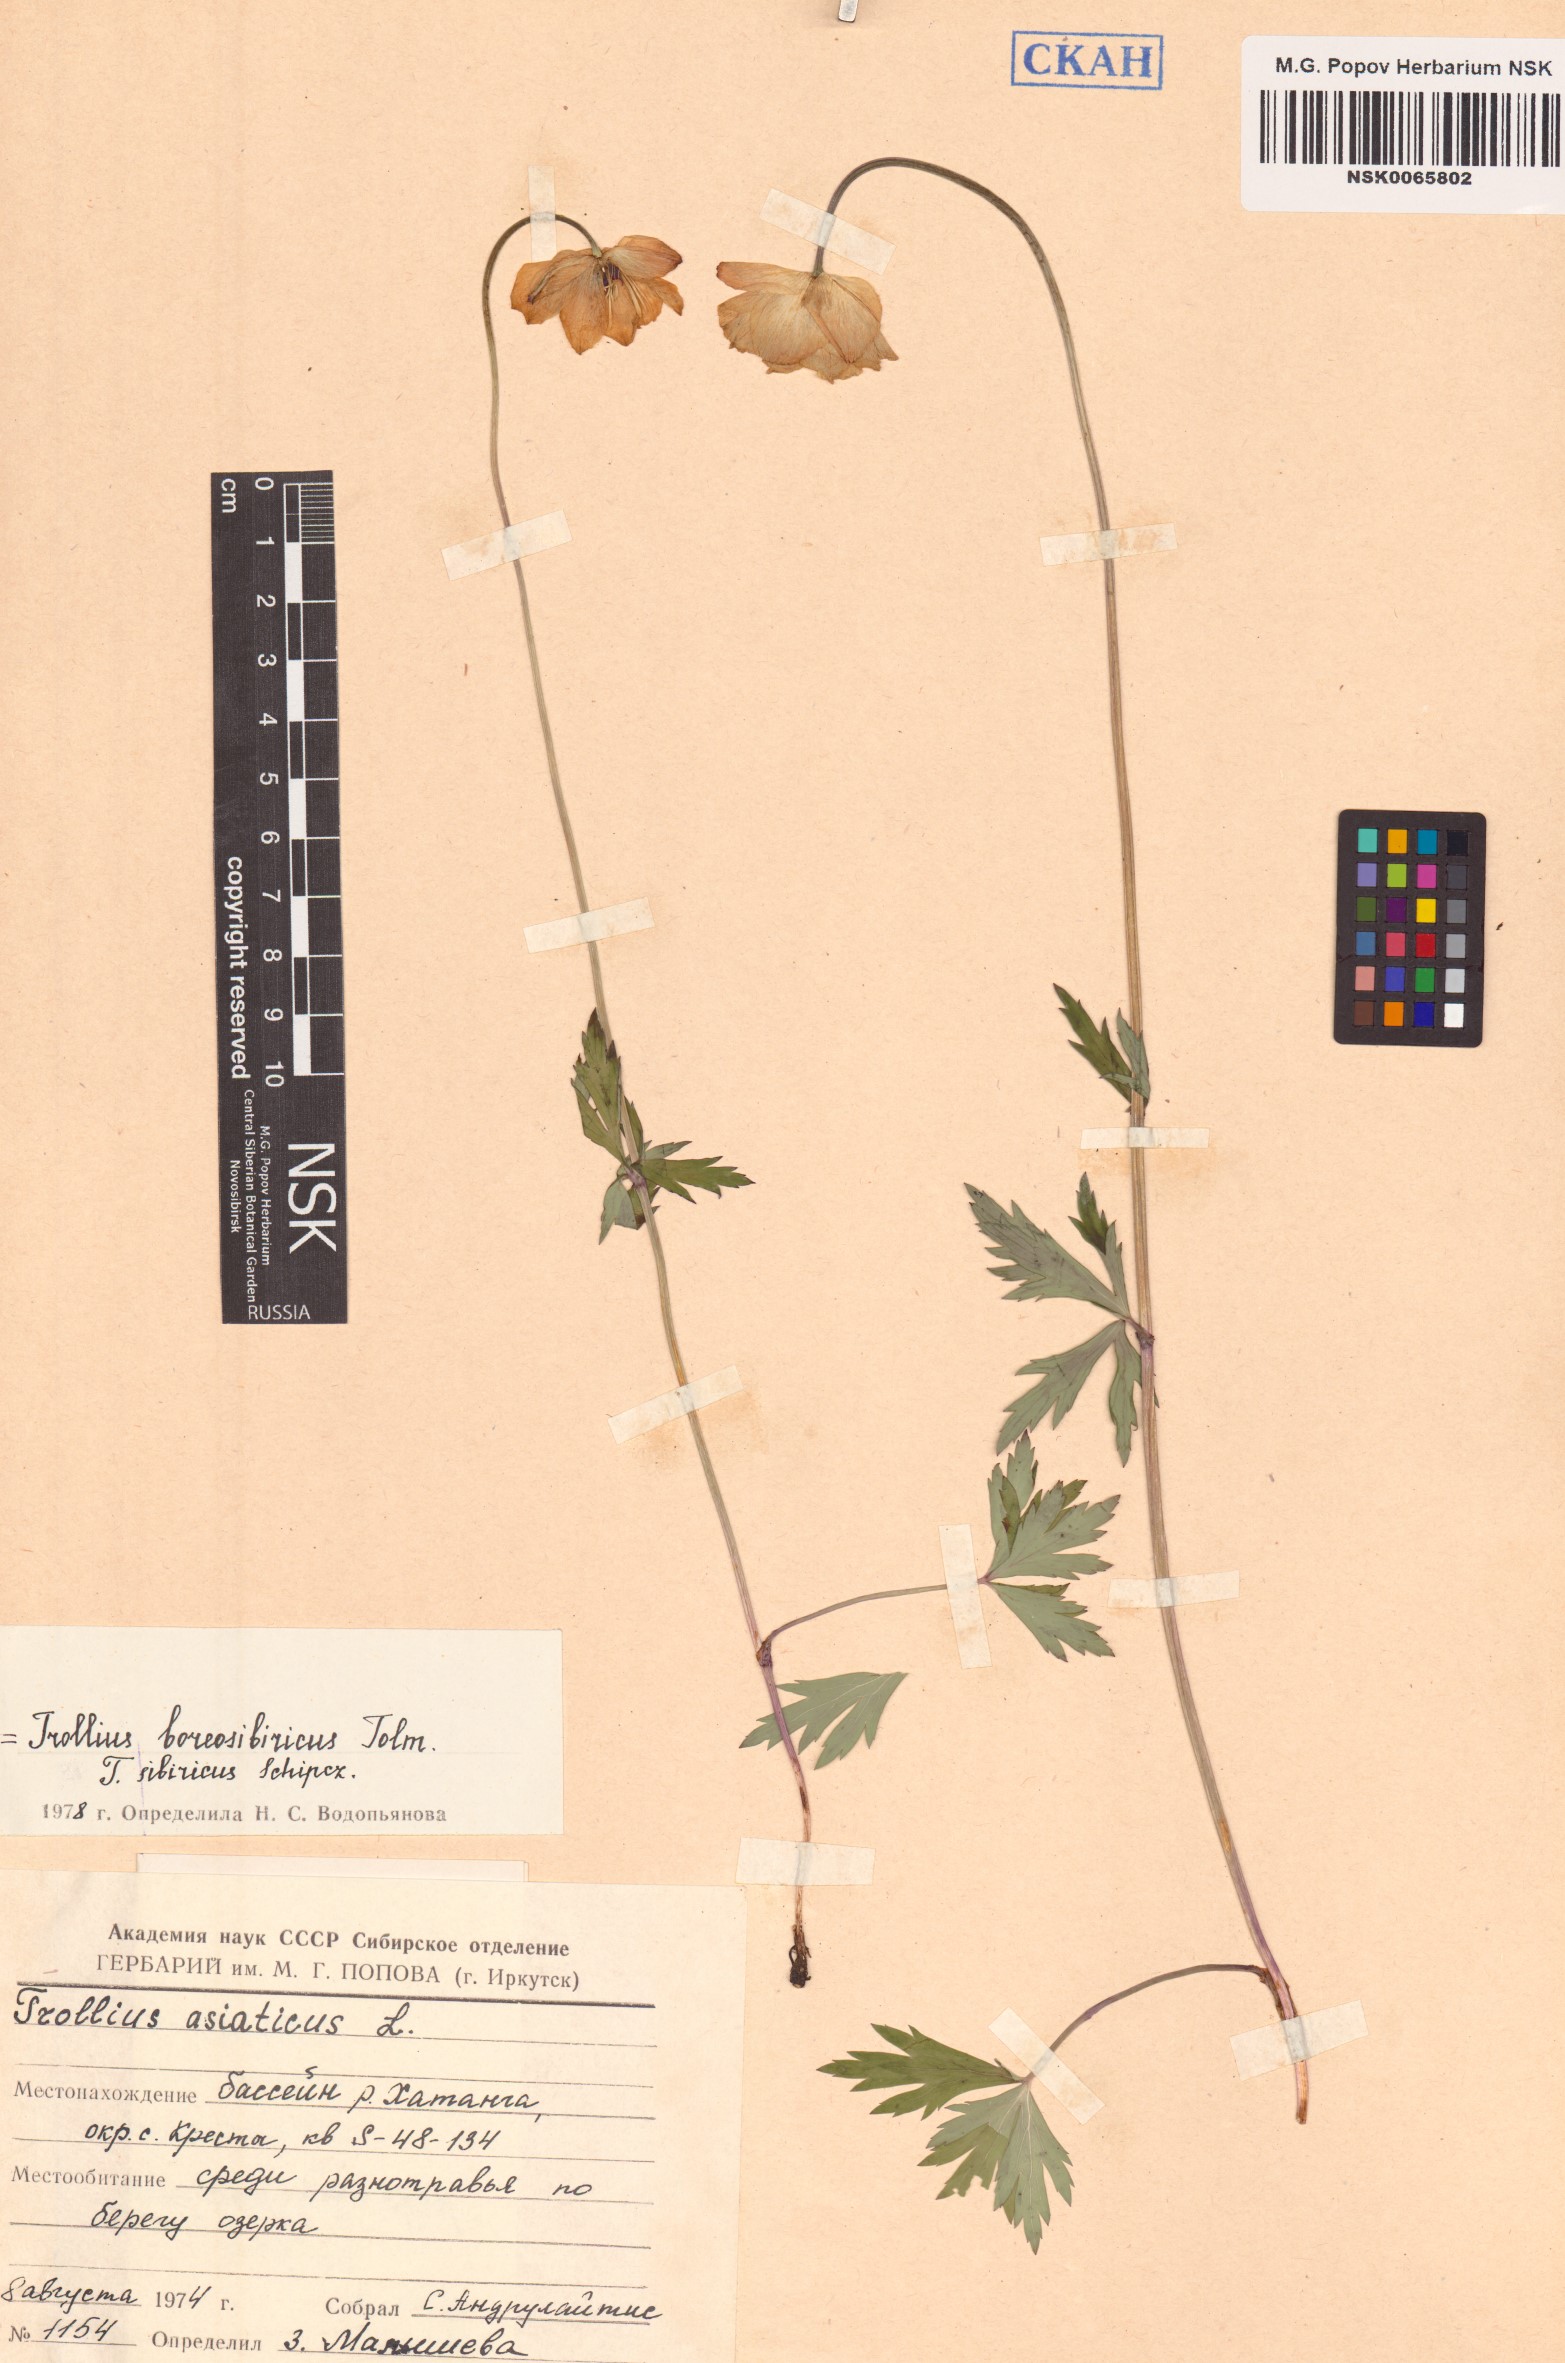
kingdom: Plantae
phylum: Tracheophyta
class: Magnoliopsida
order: Ranunculales
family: Ranunculaceae
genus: Trollius
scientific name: Trollius sibiricus
